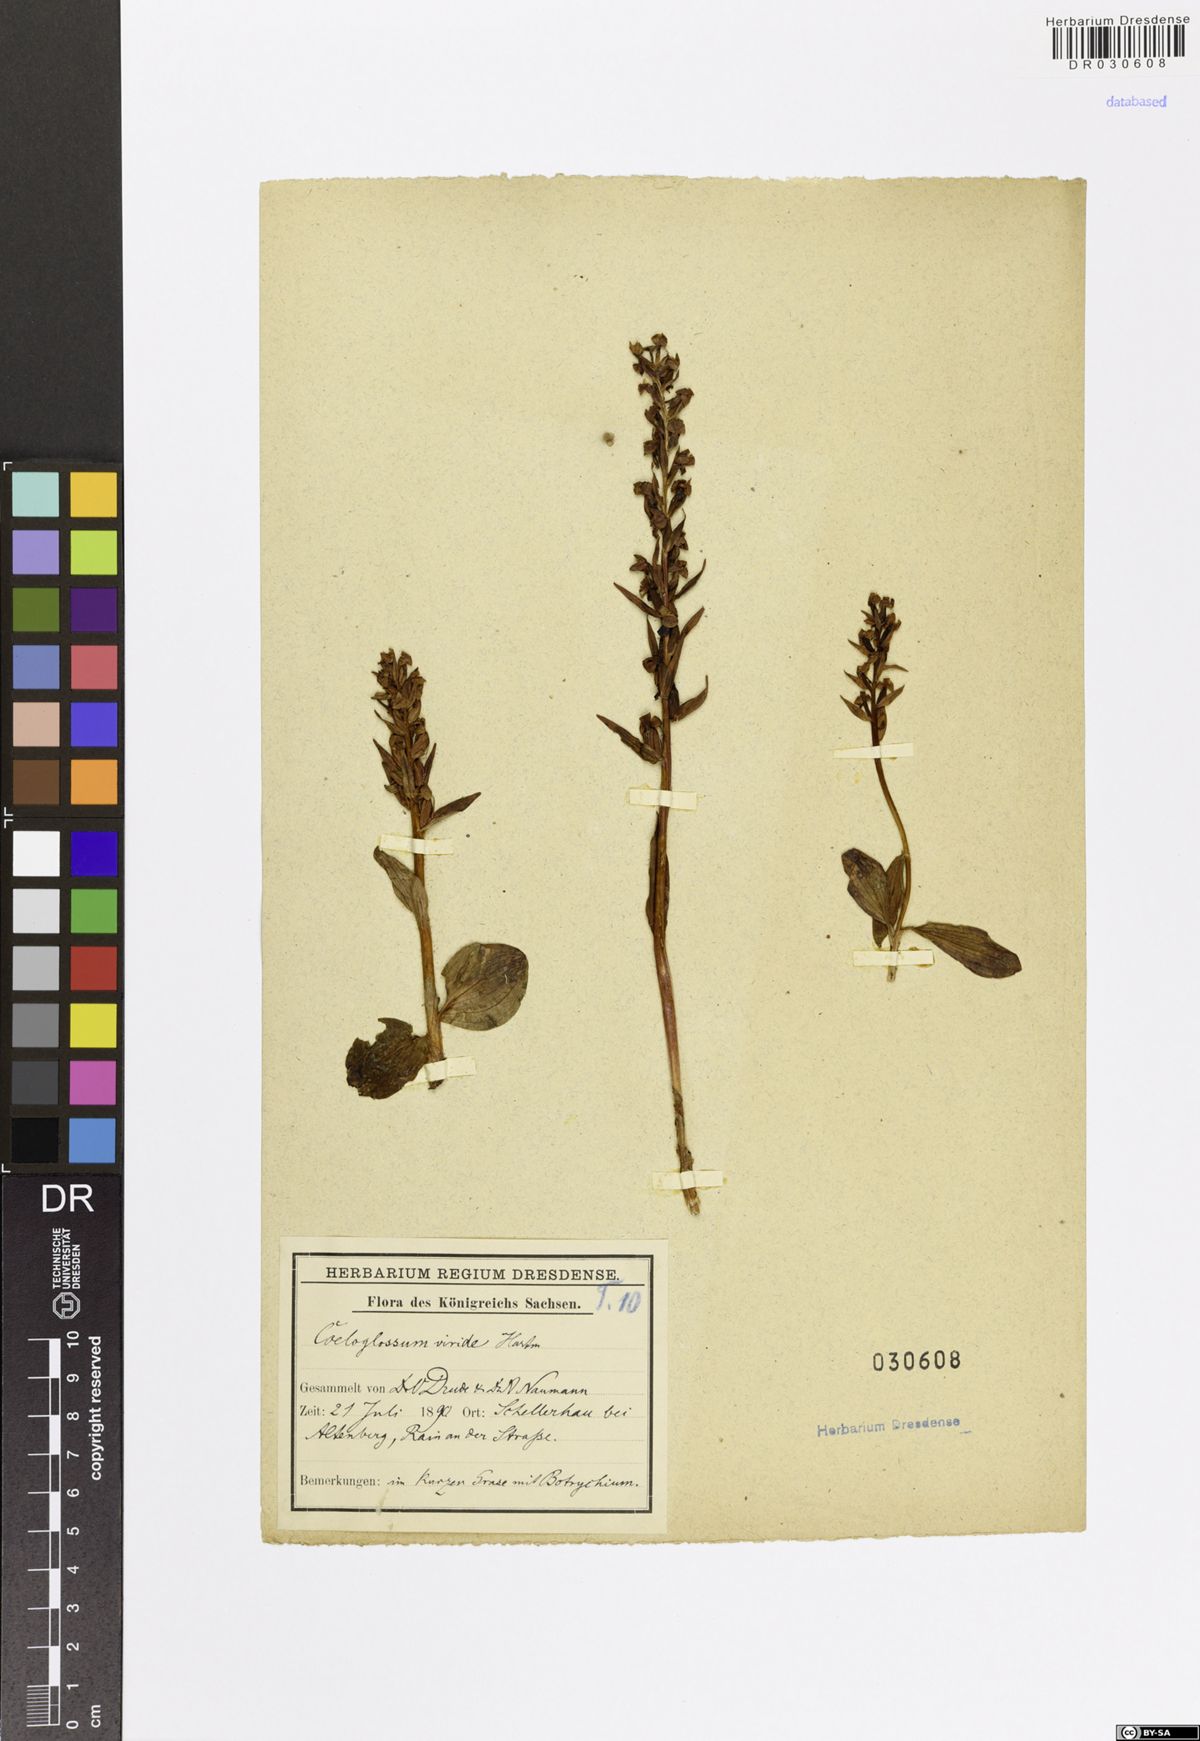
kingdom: Plantae
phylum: Tracheophyta
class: Liliopsida
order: Asparagales
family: Orchidaceae
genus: Dactylorhiza
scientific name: Dactylorhiza viridis
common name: Longbract frog orchid
